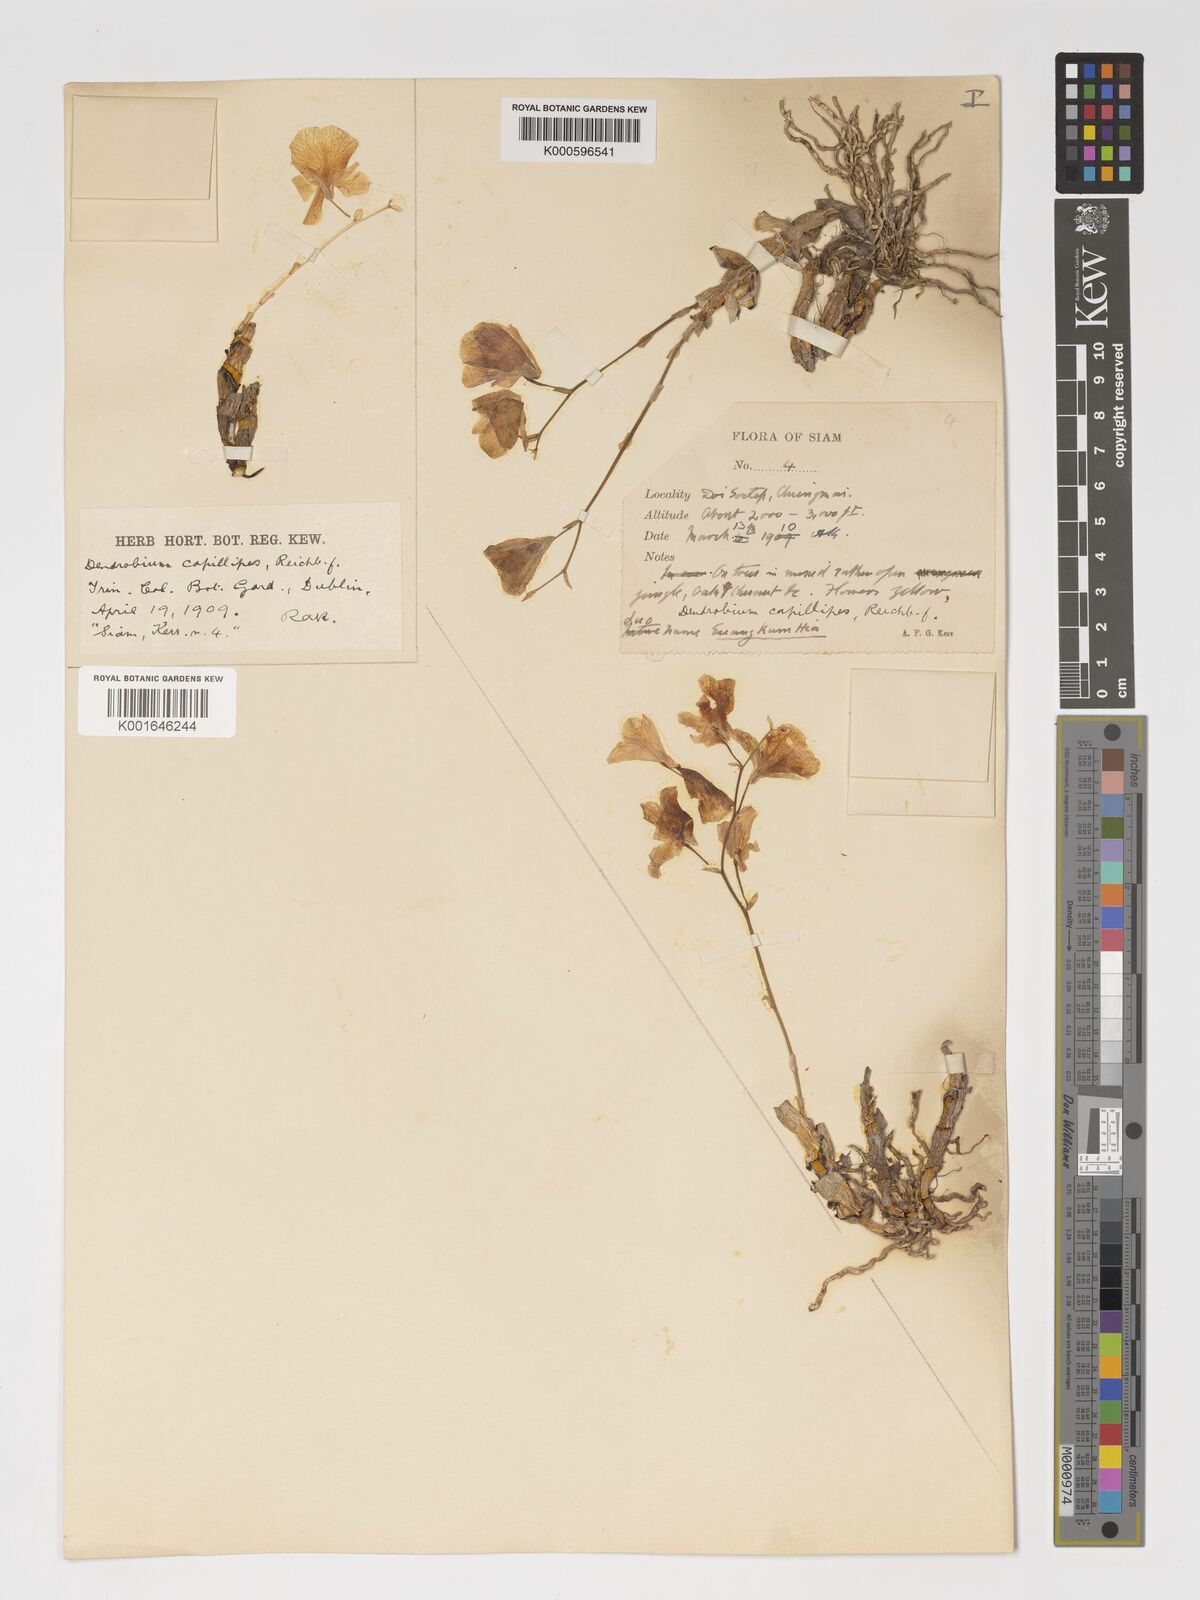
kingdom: Plantae
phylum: Tracheophyta
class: Liliopsida
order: Asparagales
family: Orchidaceae
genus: Dendrobium
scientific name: Dendrobium capillipes
